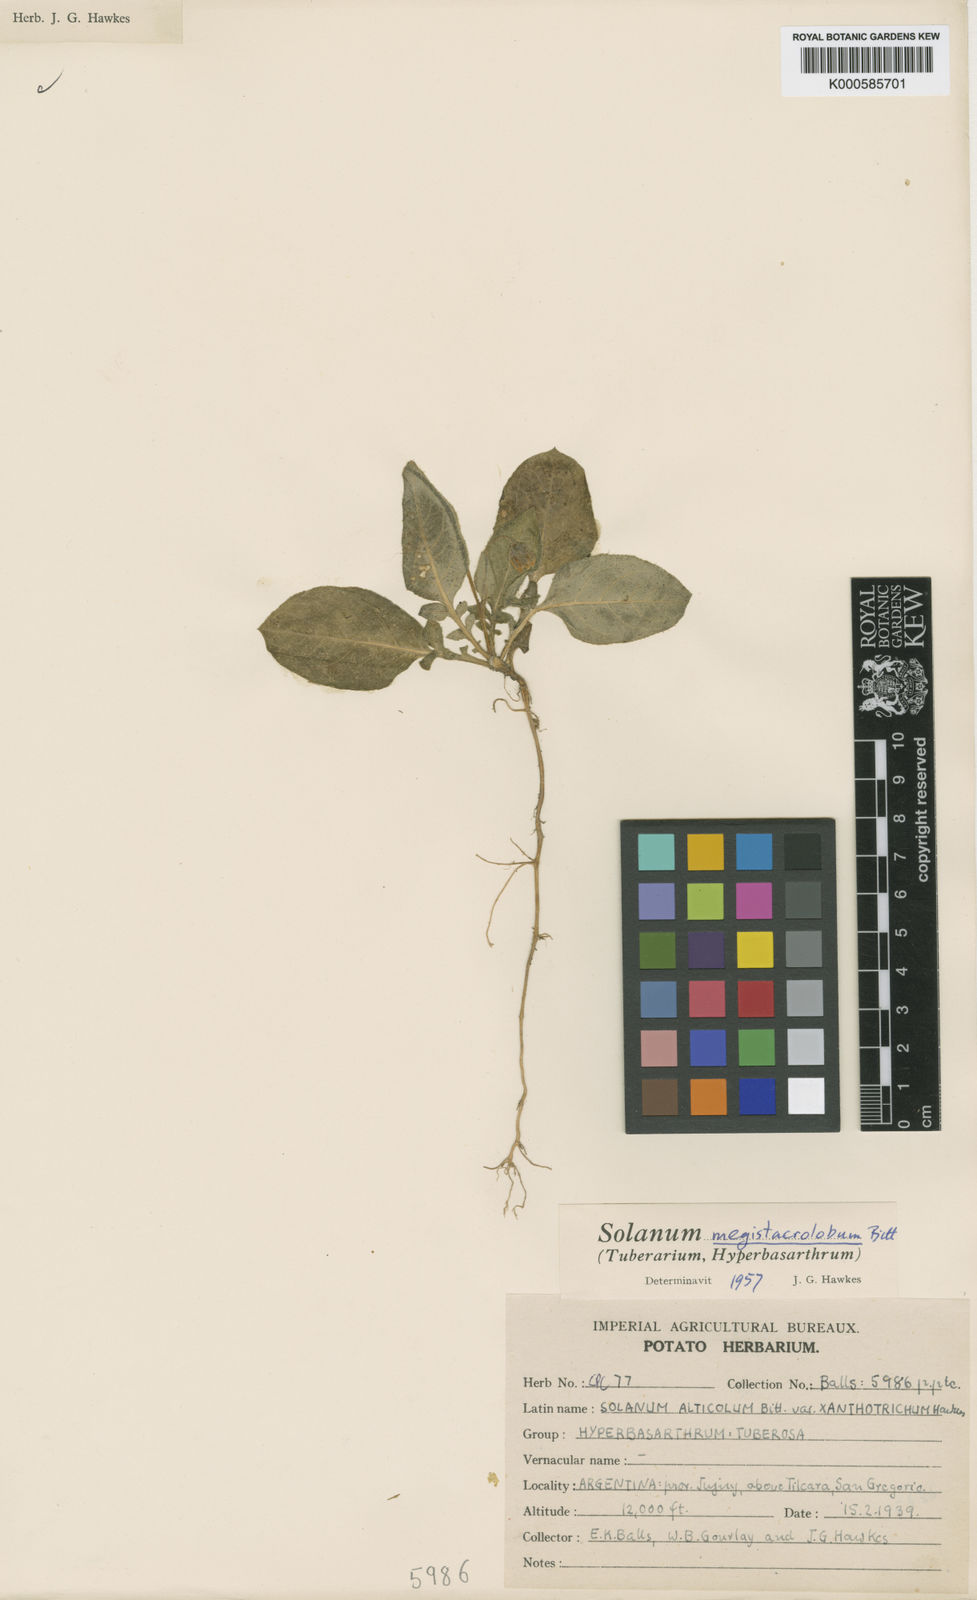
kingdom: Plantae
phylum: Tracheophyta
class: Magnoliopsida
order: Solanales
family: Solanaceae
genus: Solanum
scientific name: Solanum boliviense
